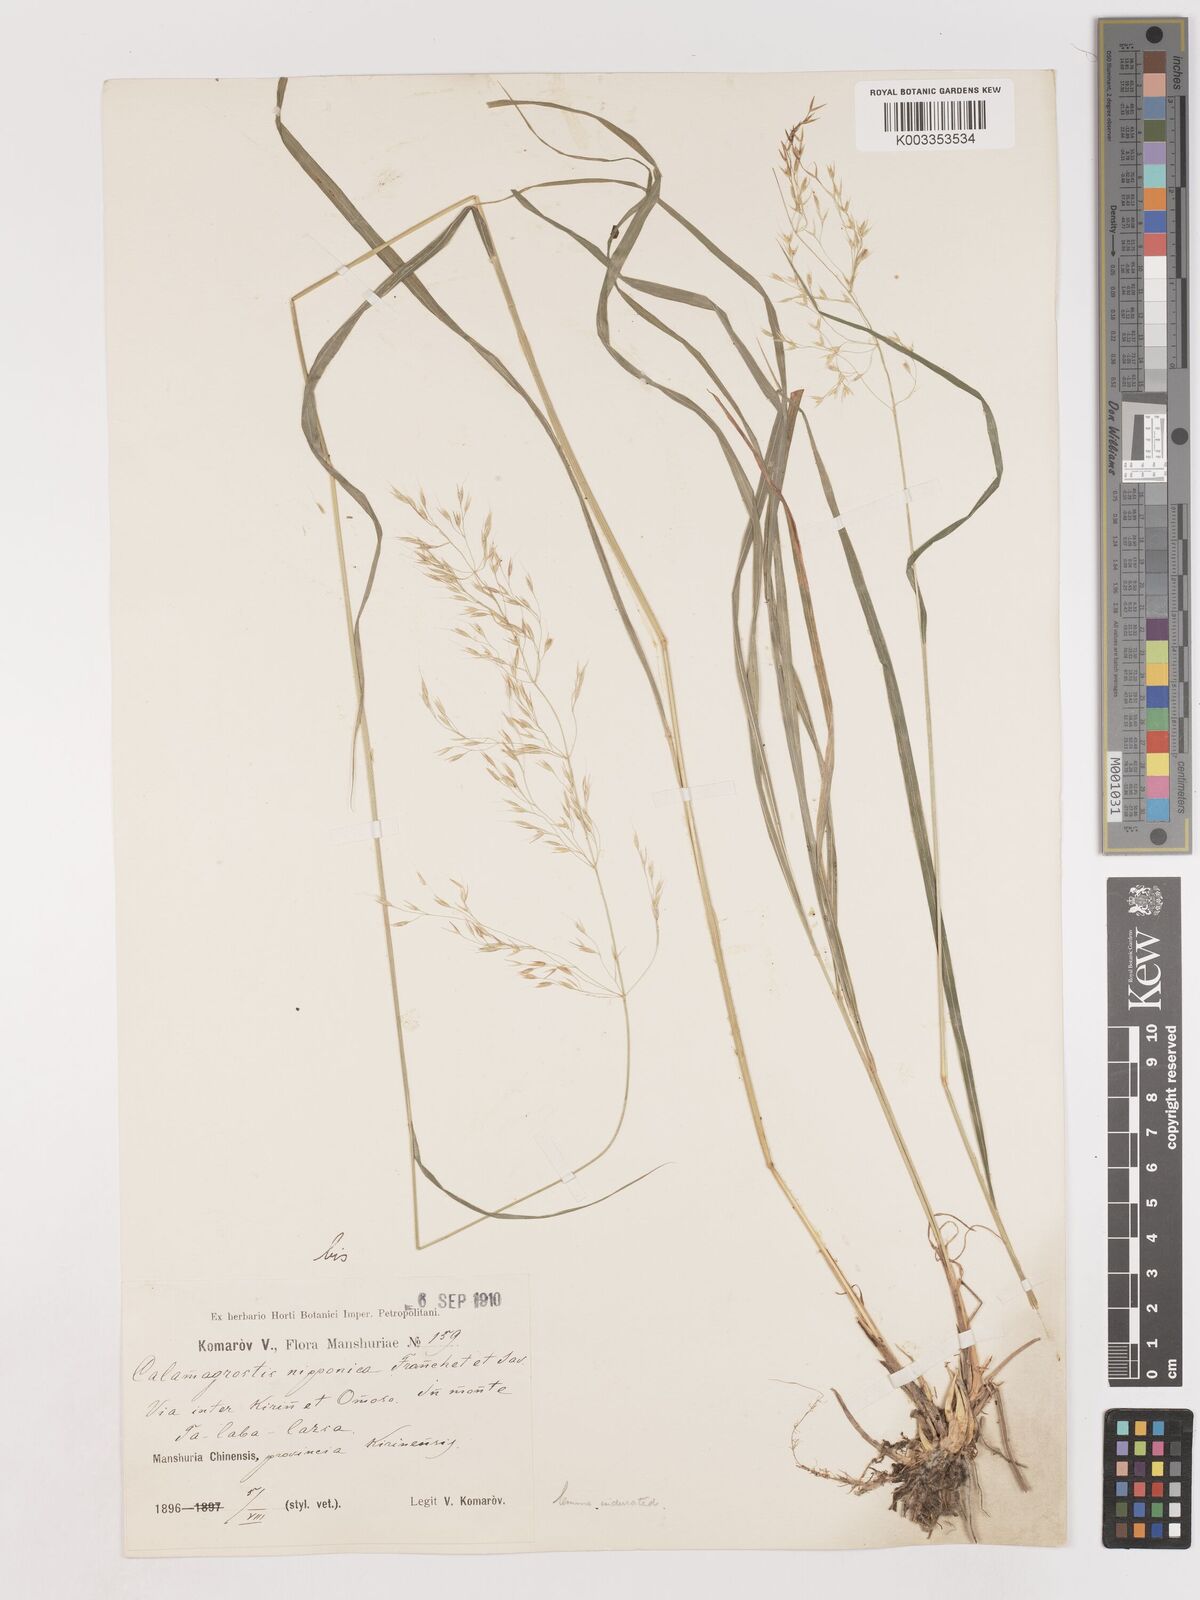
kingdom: Plantae
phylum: Tracheophyta
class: Liliopsida
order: Poales
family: Poaceae
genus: Calamagrostis
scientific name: Calamagrostis
